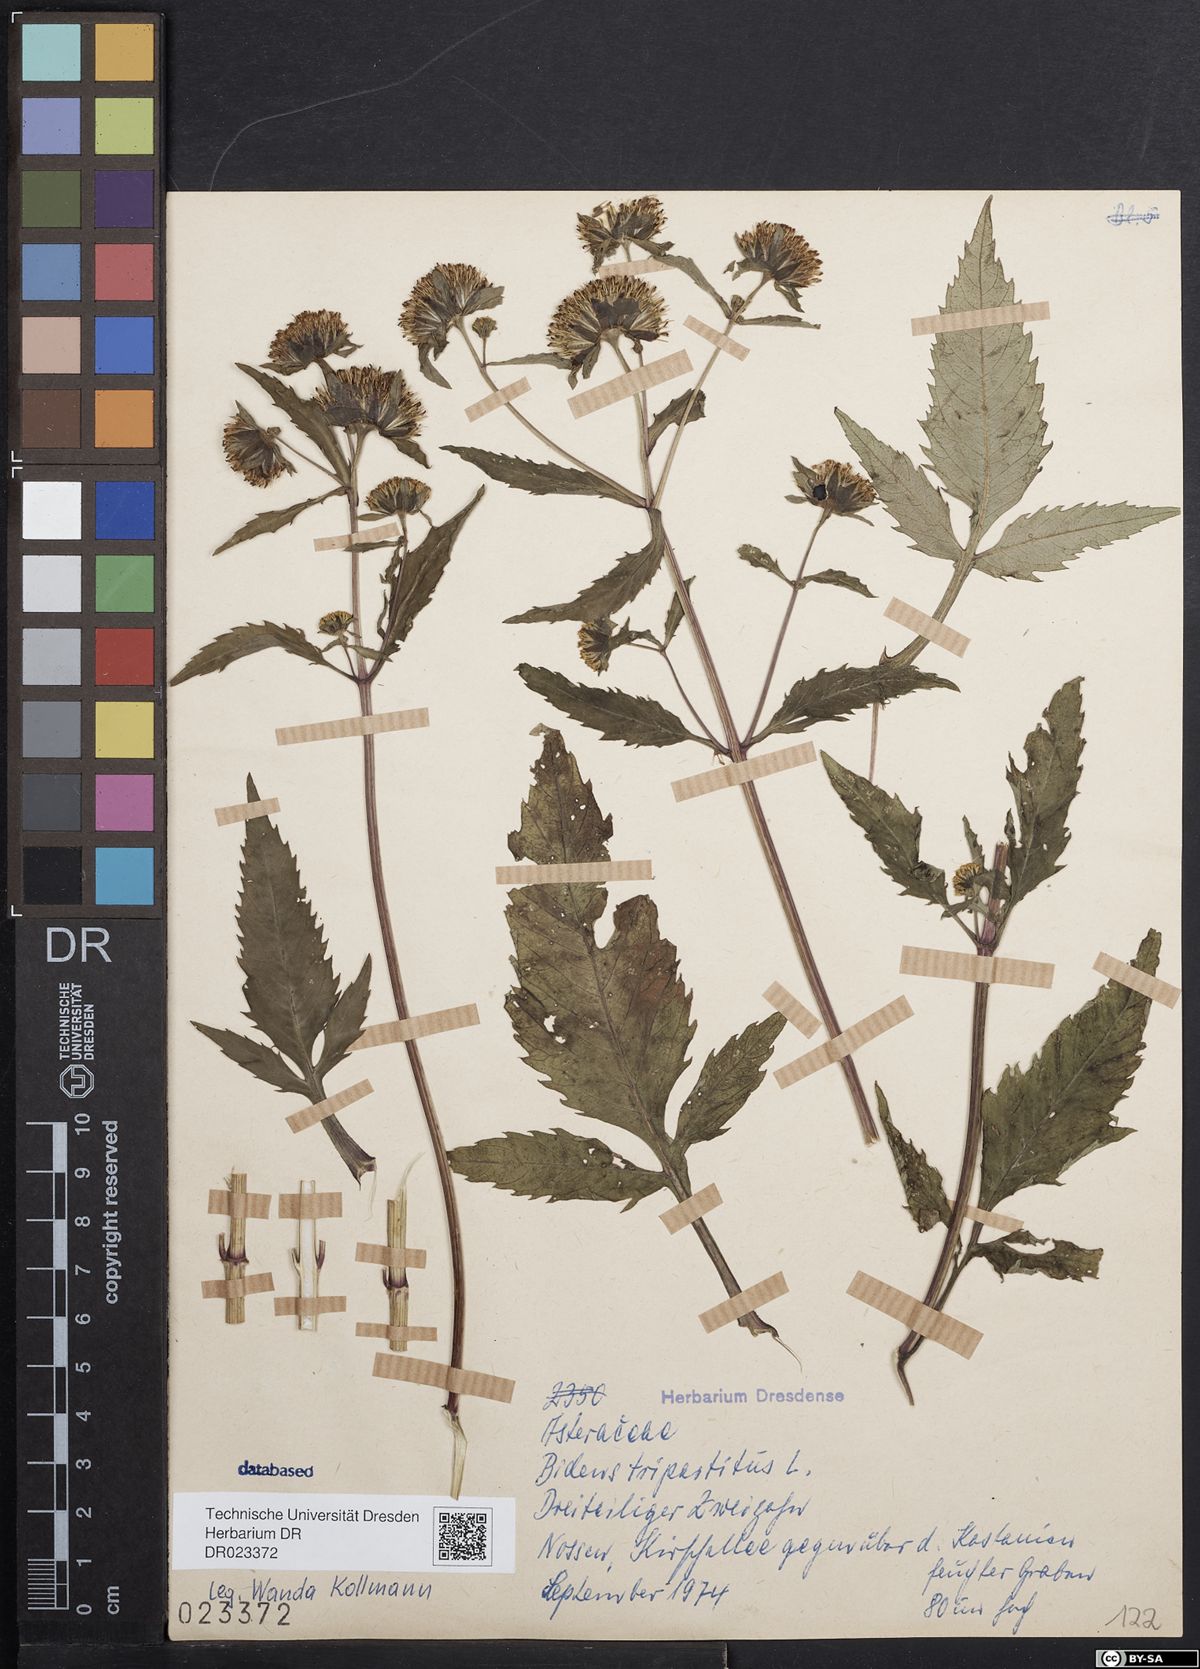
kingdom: Plantae
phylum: Tracheophyta
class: Magnoliopsida
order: Asterales
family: Asteraceae
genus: Bidens
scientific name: Bidens tripartita
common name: Trifid bur-marigold
